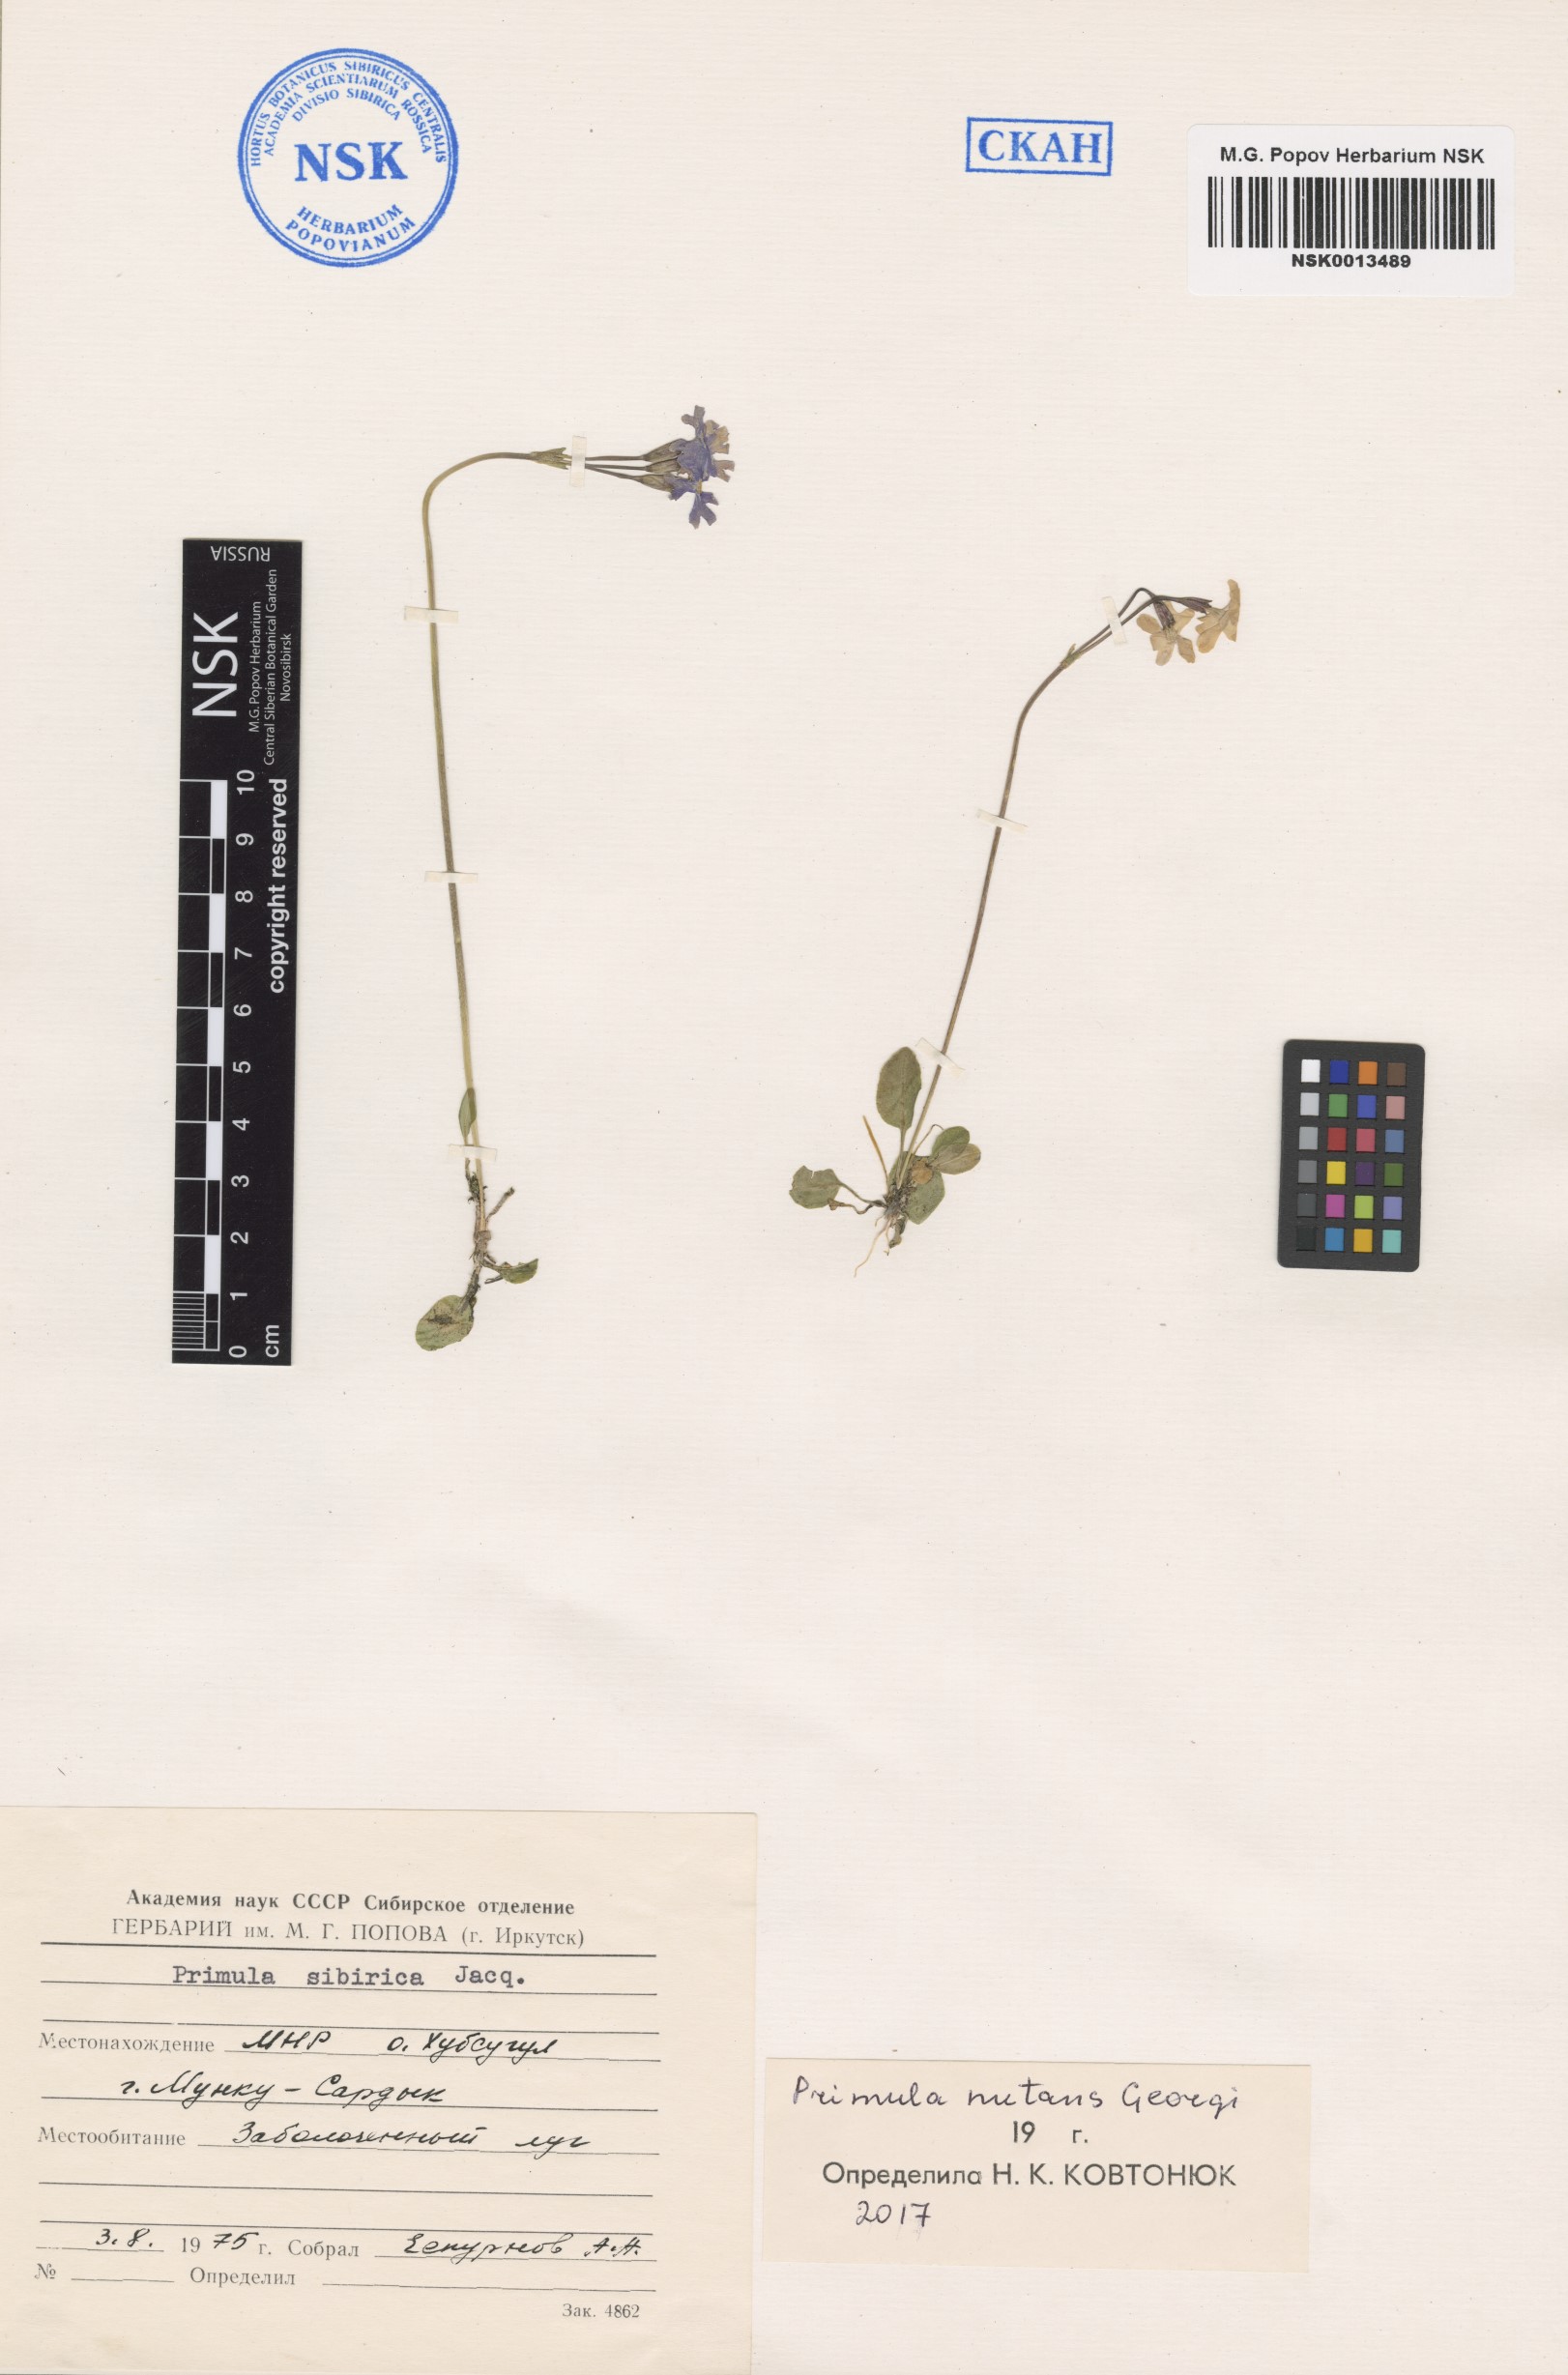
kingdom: Plantae
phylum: Tracheophyta
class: Magnoliopsida
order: Ericales
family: Primulaceae
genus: Primula
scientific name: Primula nutans
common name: Siberian primrose
